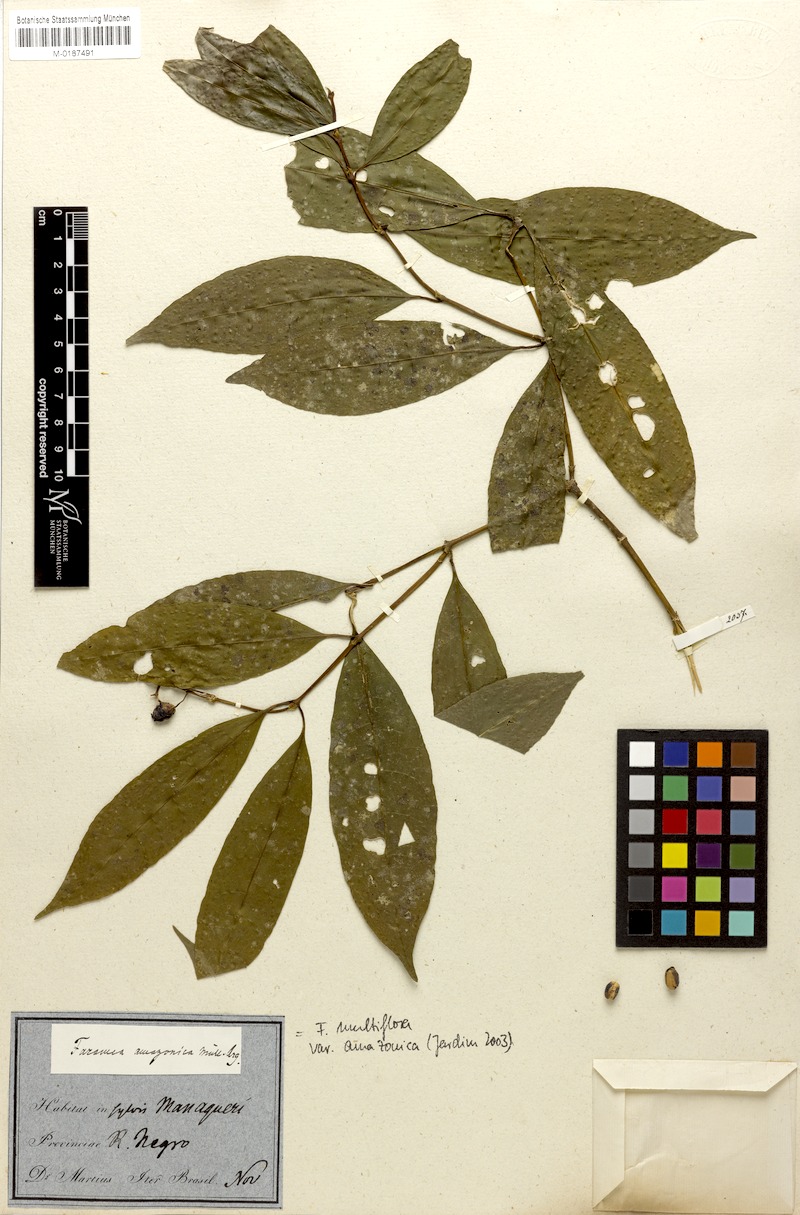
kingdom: Plantae
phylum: Tracheophyta
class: Magnoliopsida
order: Gentianales
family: Rubiaceae
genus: Faramea
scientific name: Faramea multiflora
